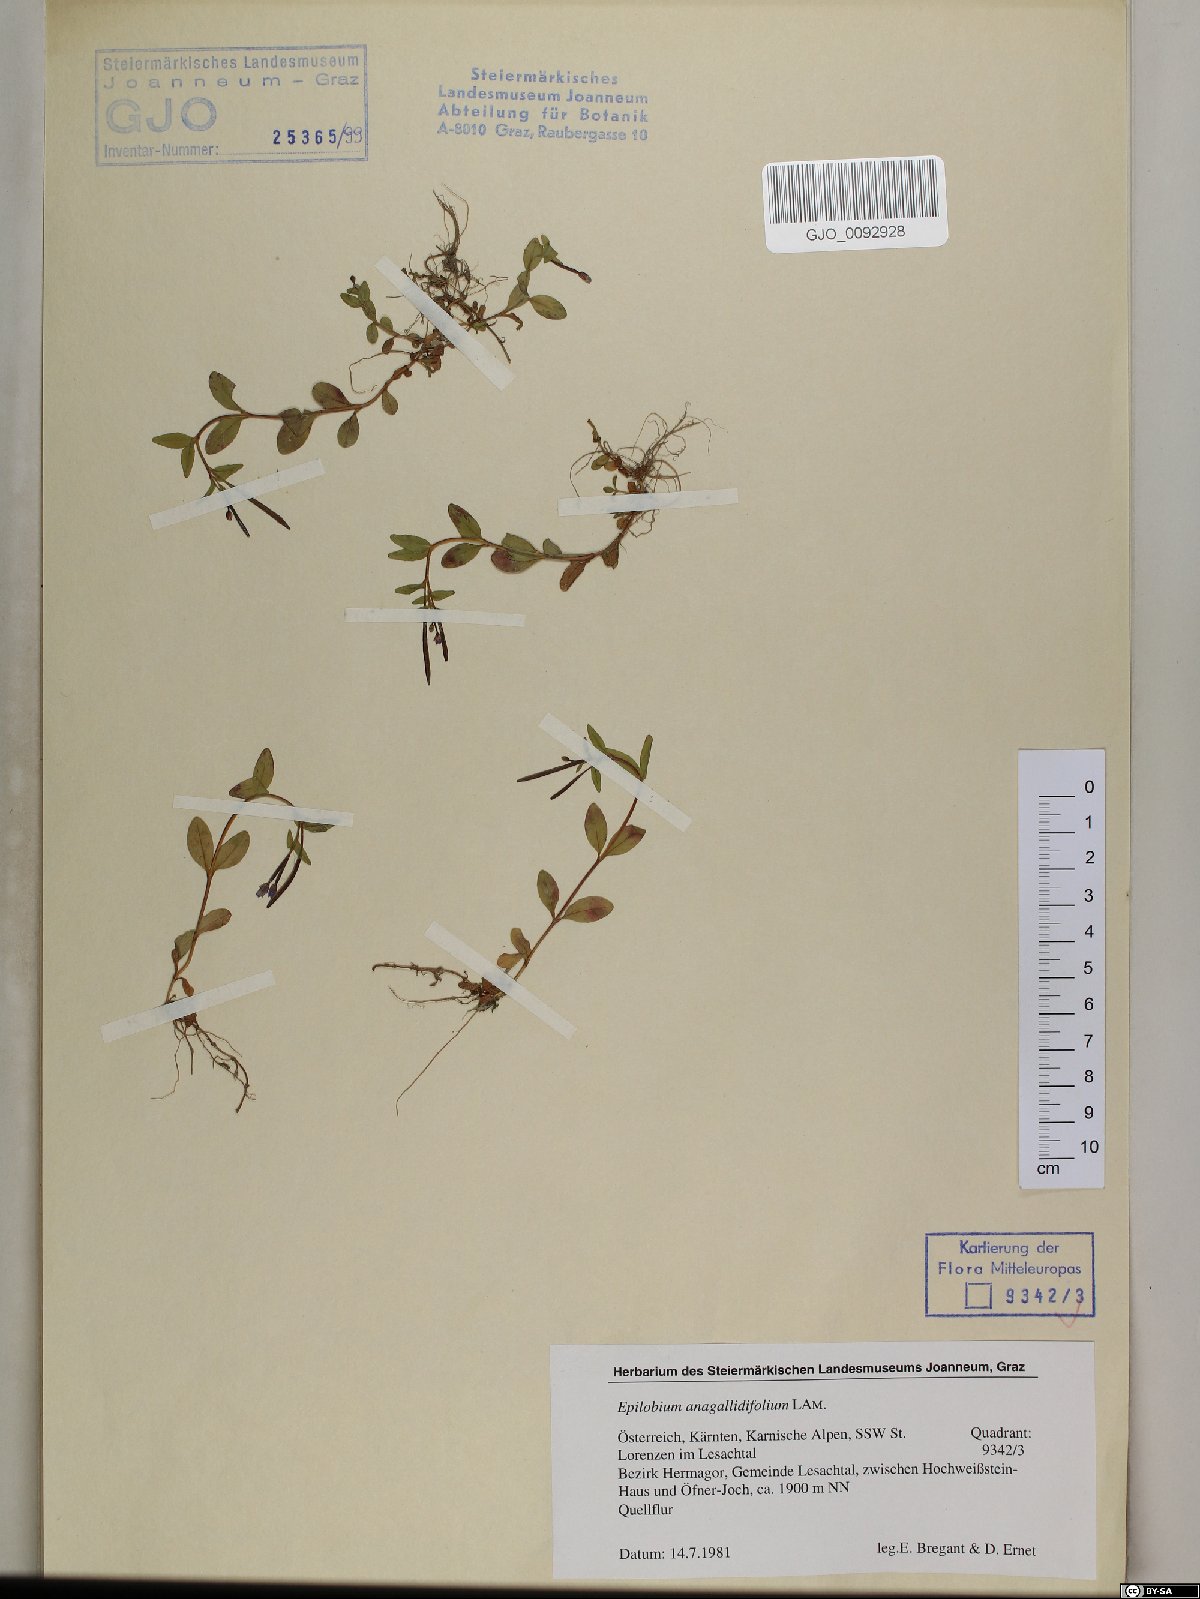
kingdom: Plantae
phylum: Tracheophyta
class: Magnoliopsida
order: Myrtales
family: Onagraceae
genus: Epilobium
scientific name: Epilobium anagallidifolium
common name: Alpine willowherb
